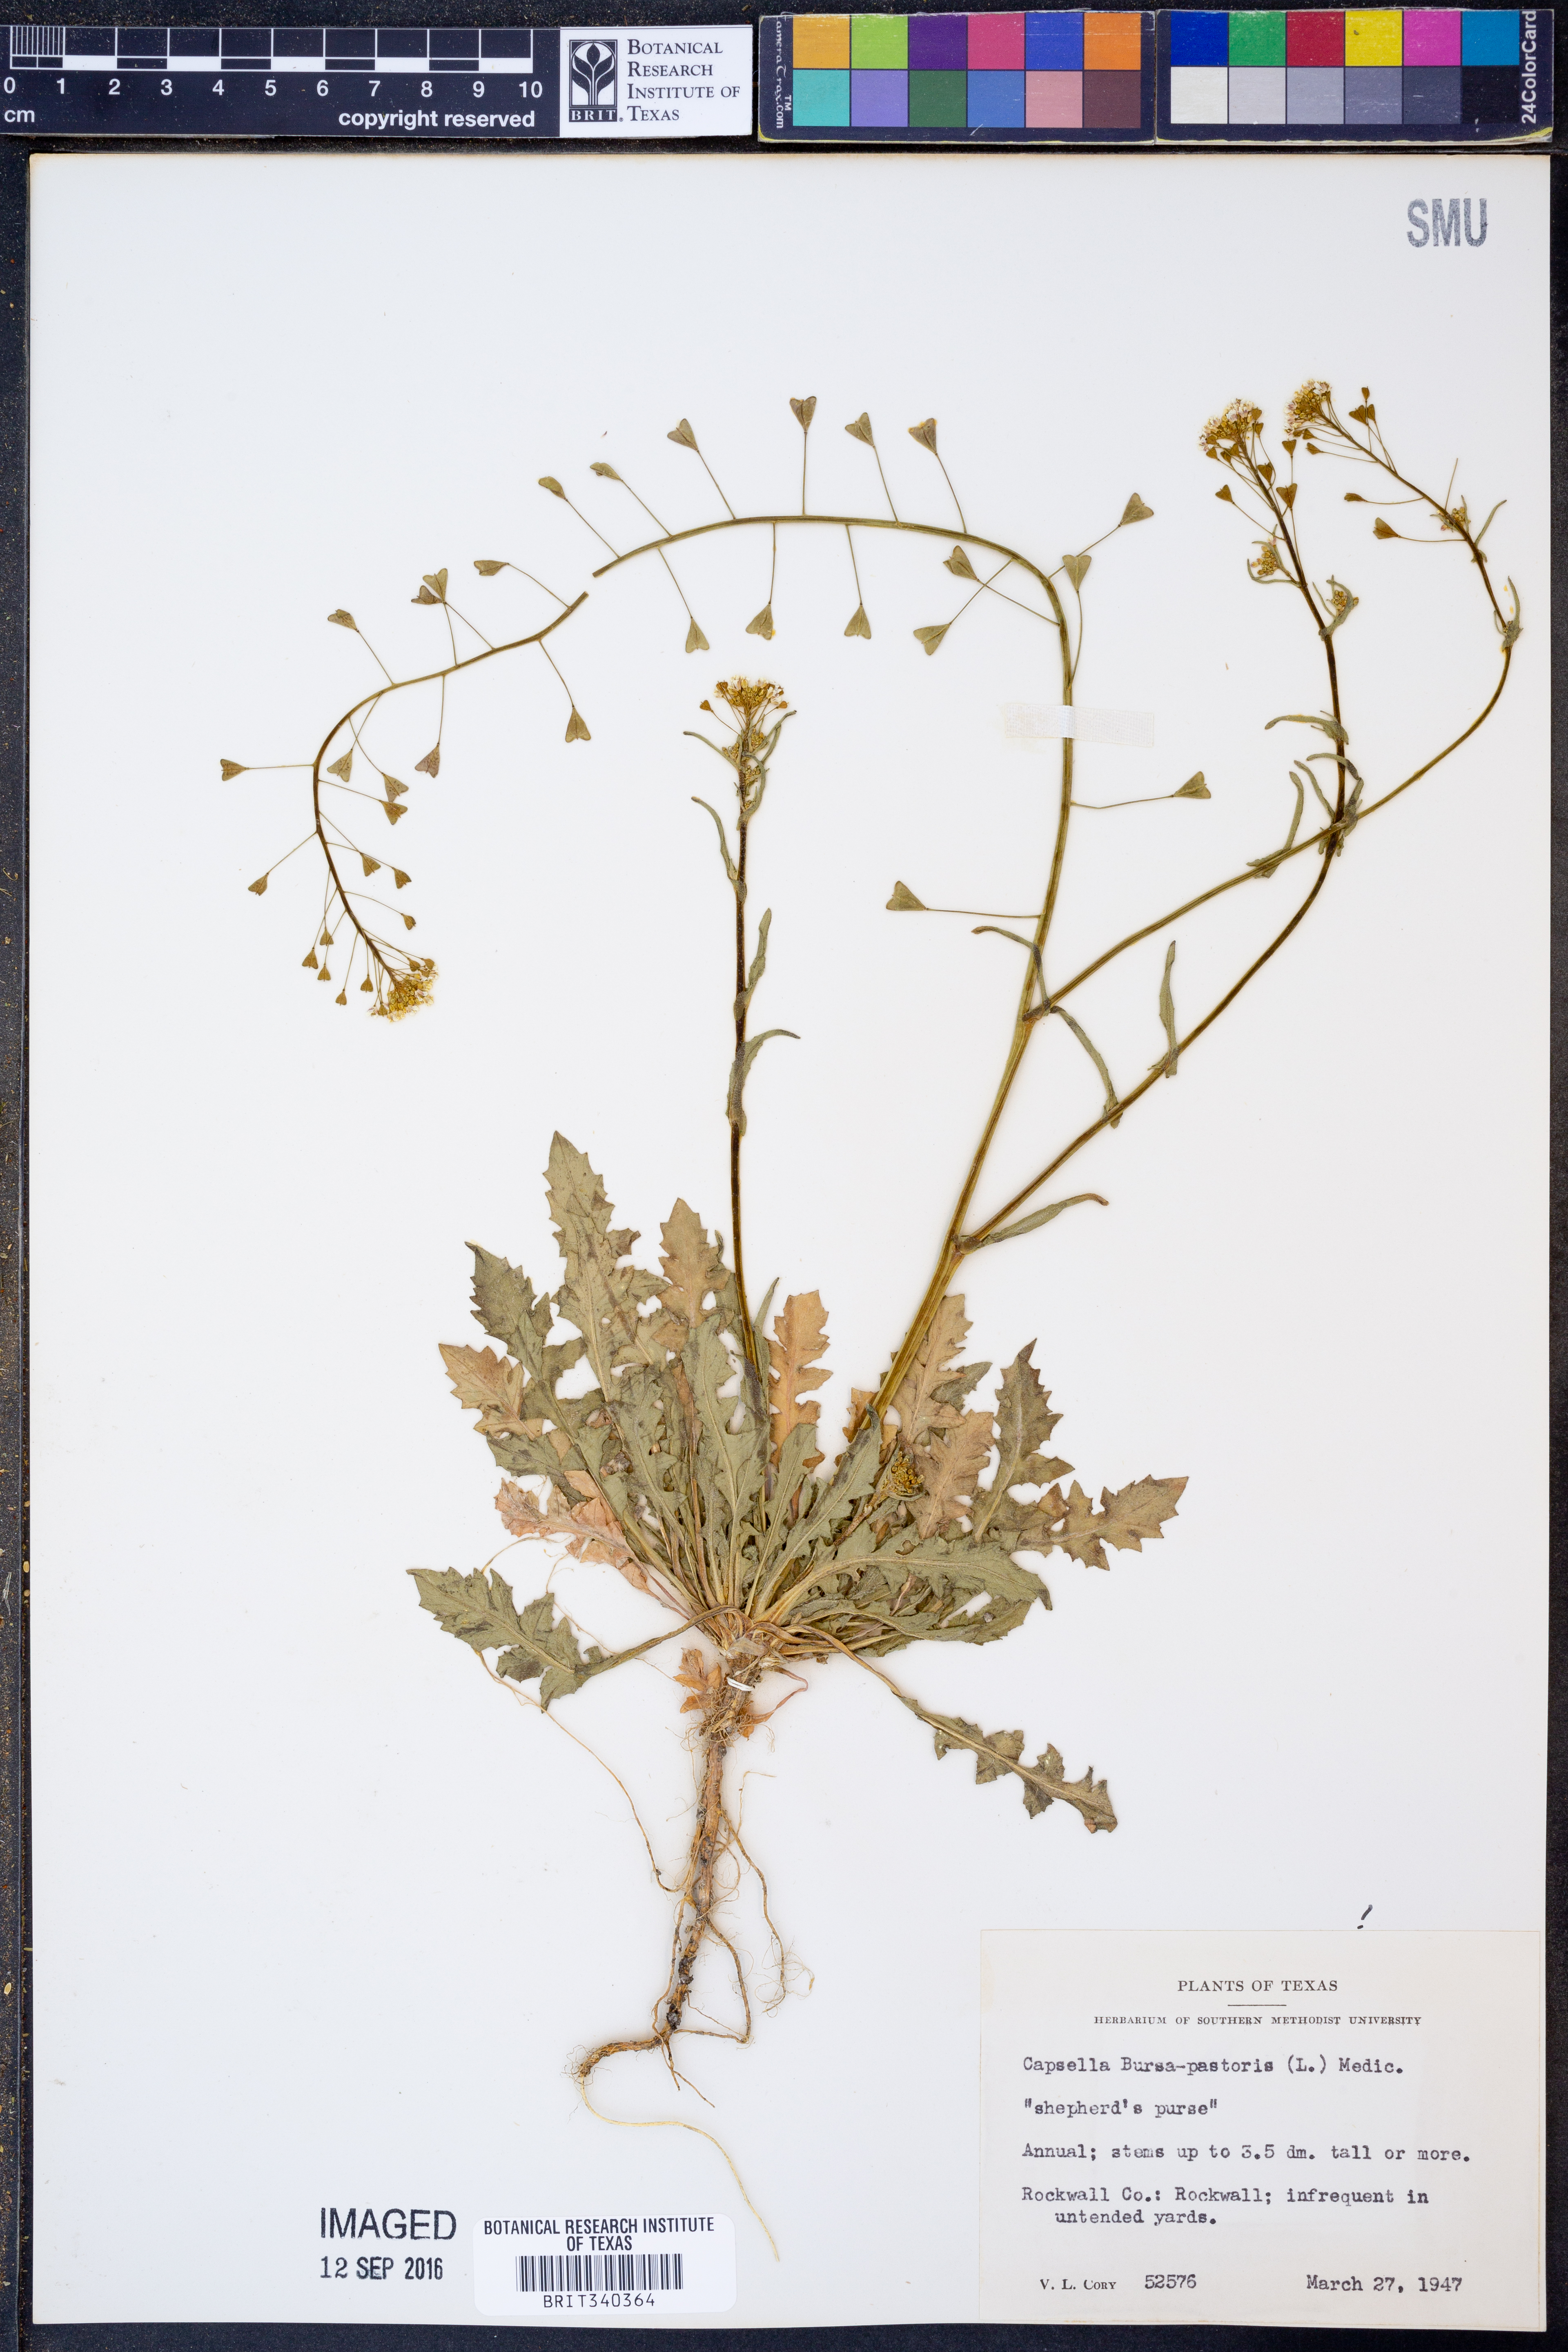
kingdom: Plantae
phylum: Tracheophyta
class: Magnoliopsida
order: Brassicales
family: Brassicaceae
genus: Capsella
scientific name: Capsella bursa-pastoris
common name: Shepherd's purse
